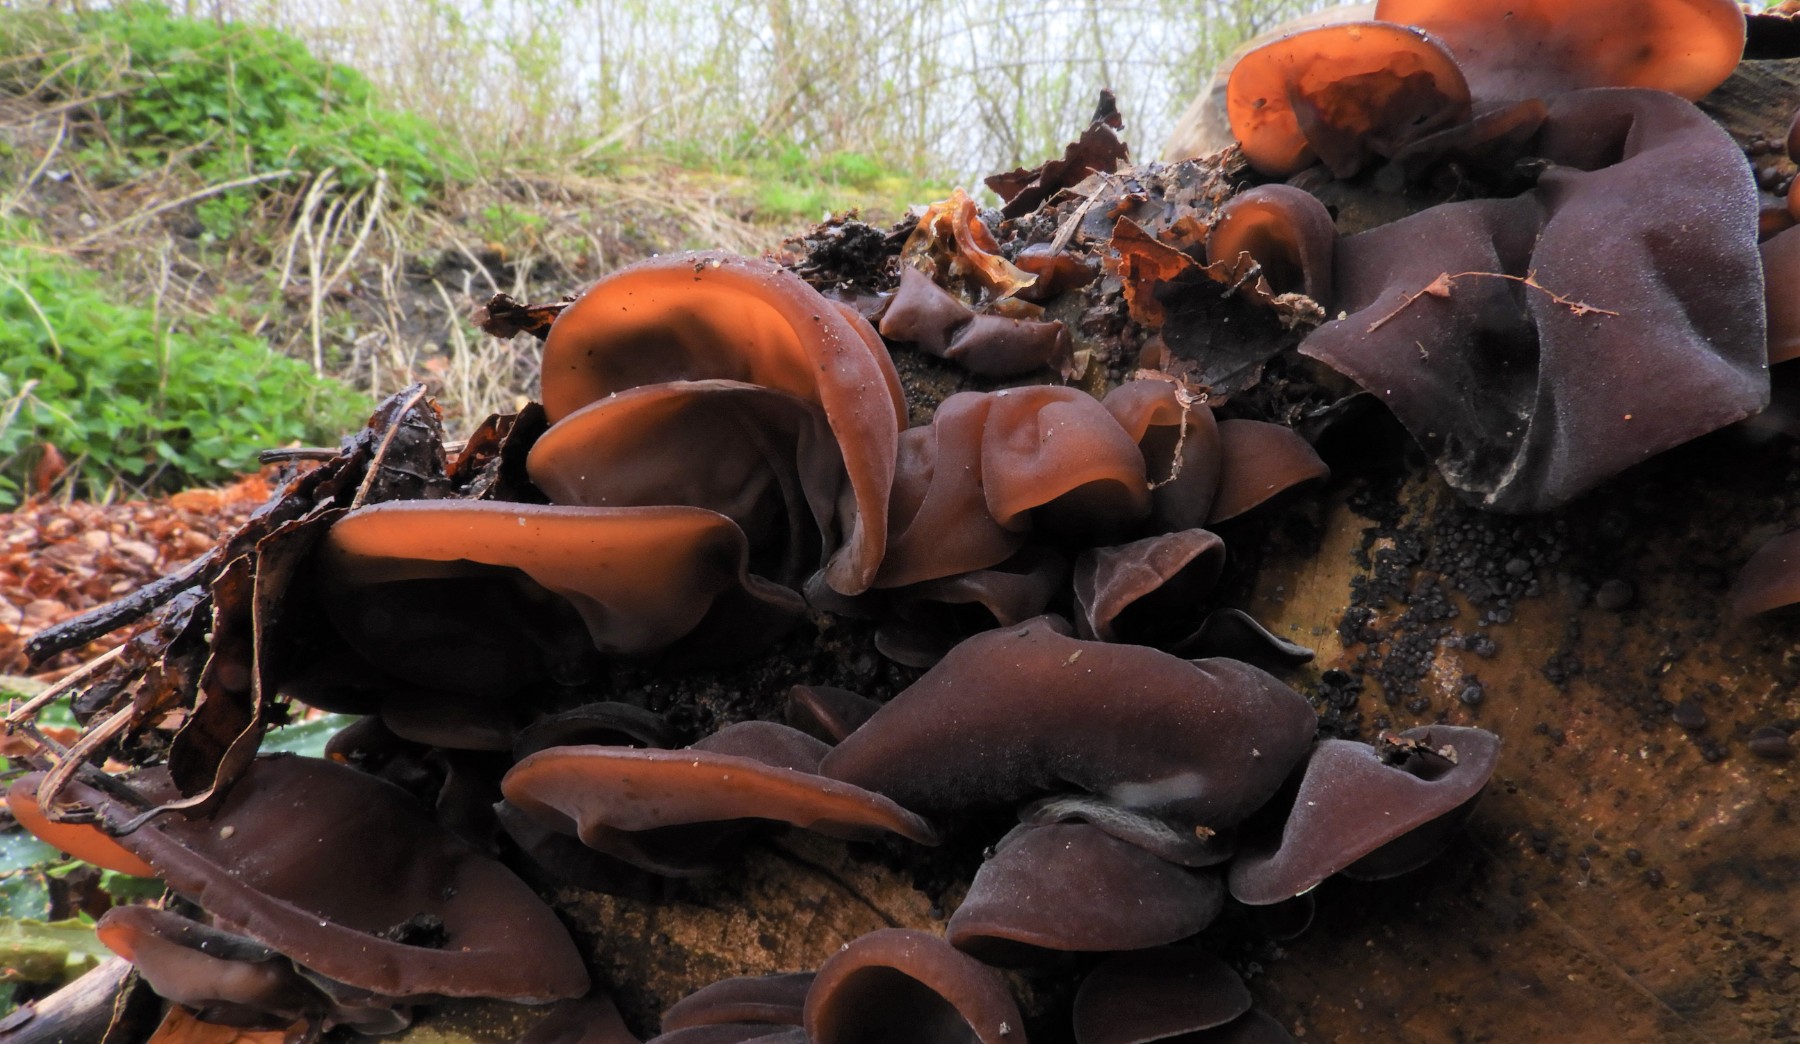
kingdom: Fungi
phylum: Basidiomycota
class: Agaricomycetes
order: Auriculariales
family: Auriculariaceae
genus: Auricularia
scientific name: Auricularia auricula-judae
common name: almindelig judasøre
